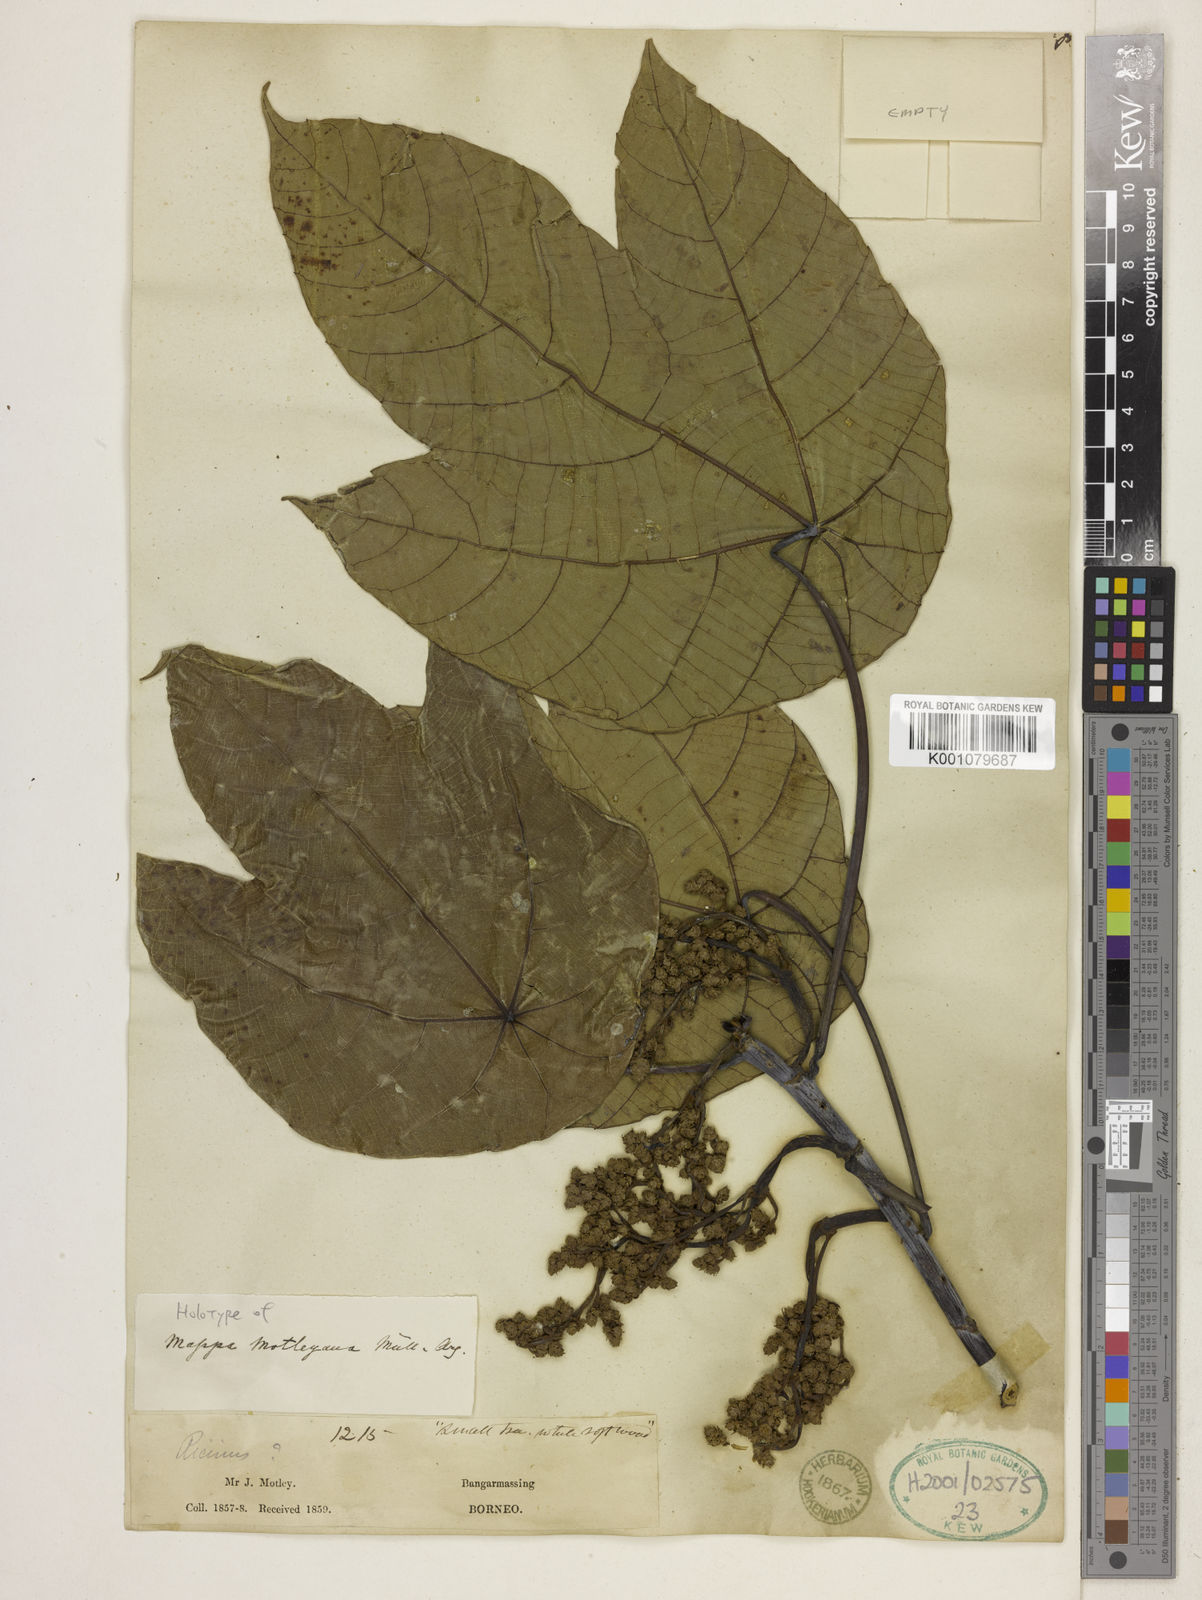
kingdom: Plantae
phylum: Tracheophyta
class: Magnoliopsida
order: Malpighiales
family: Euphorbiaceae
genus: Macaranga
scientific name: Macaranga
